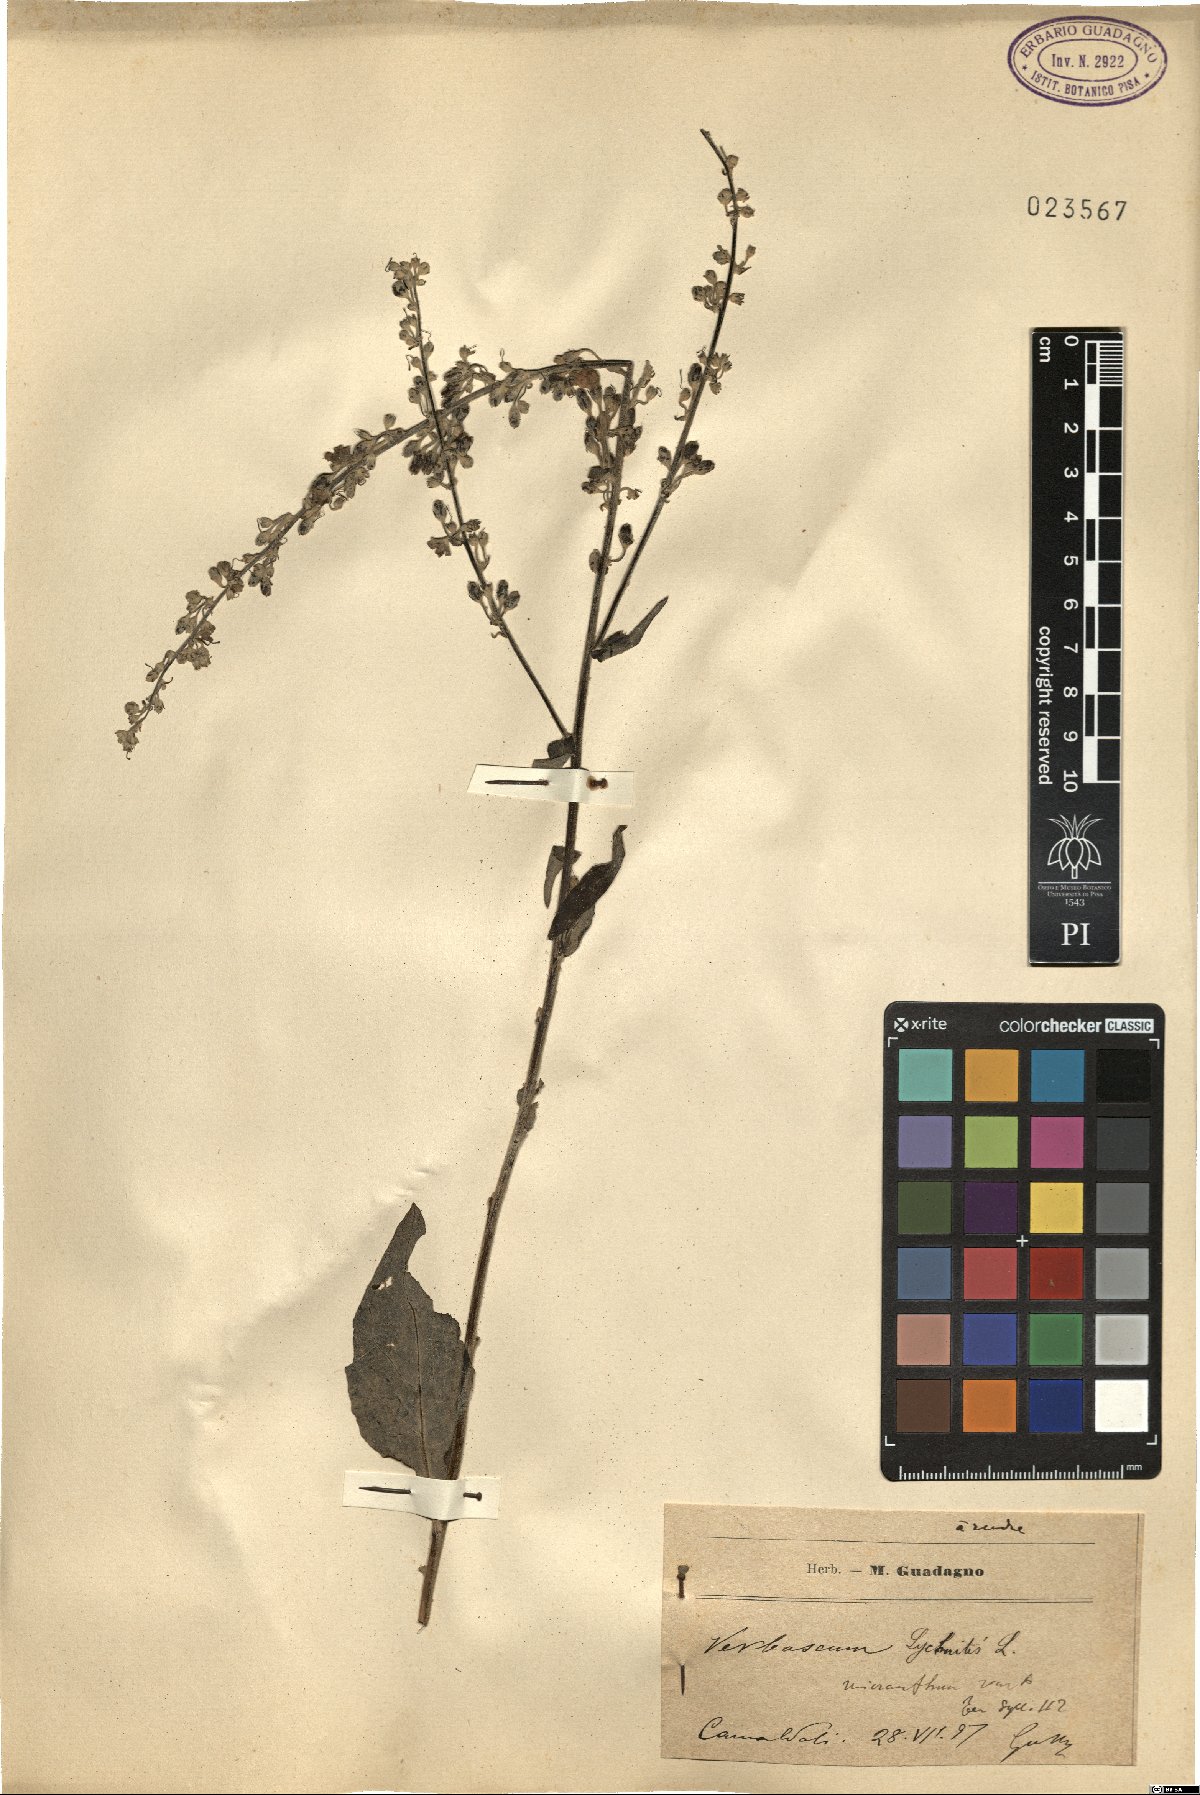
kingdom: Plantae
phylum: Tracheophyta
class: Magnoliopsida
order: Lamiales
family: Scrophulariaceae
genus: Verbascum
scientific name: Verbascum lychnitis
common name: White mullein
